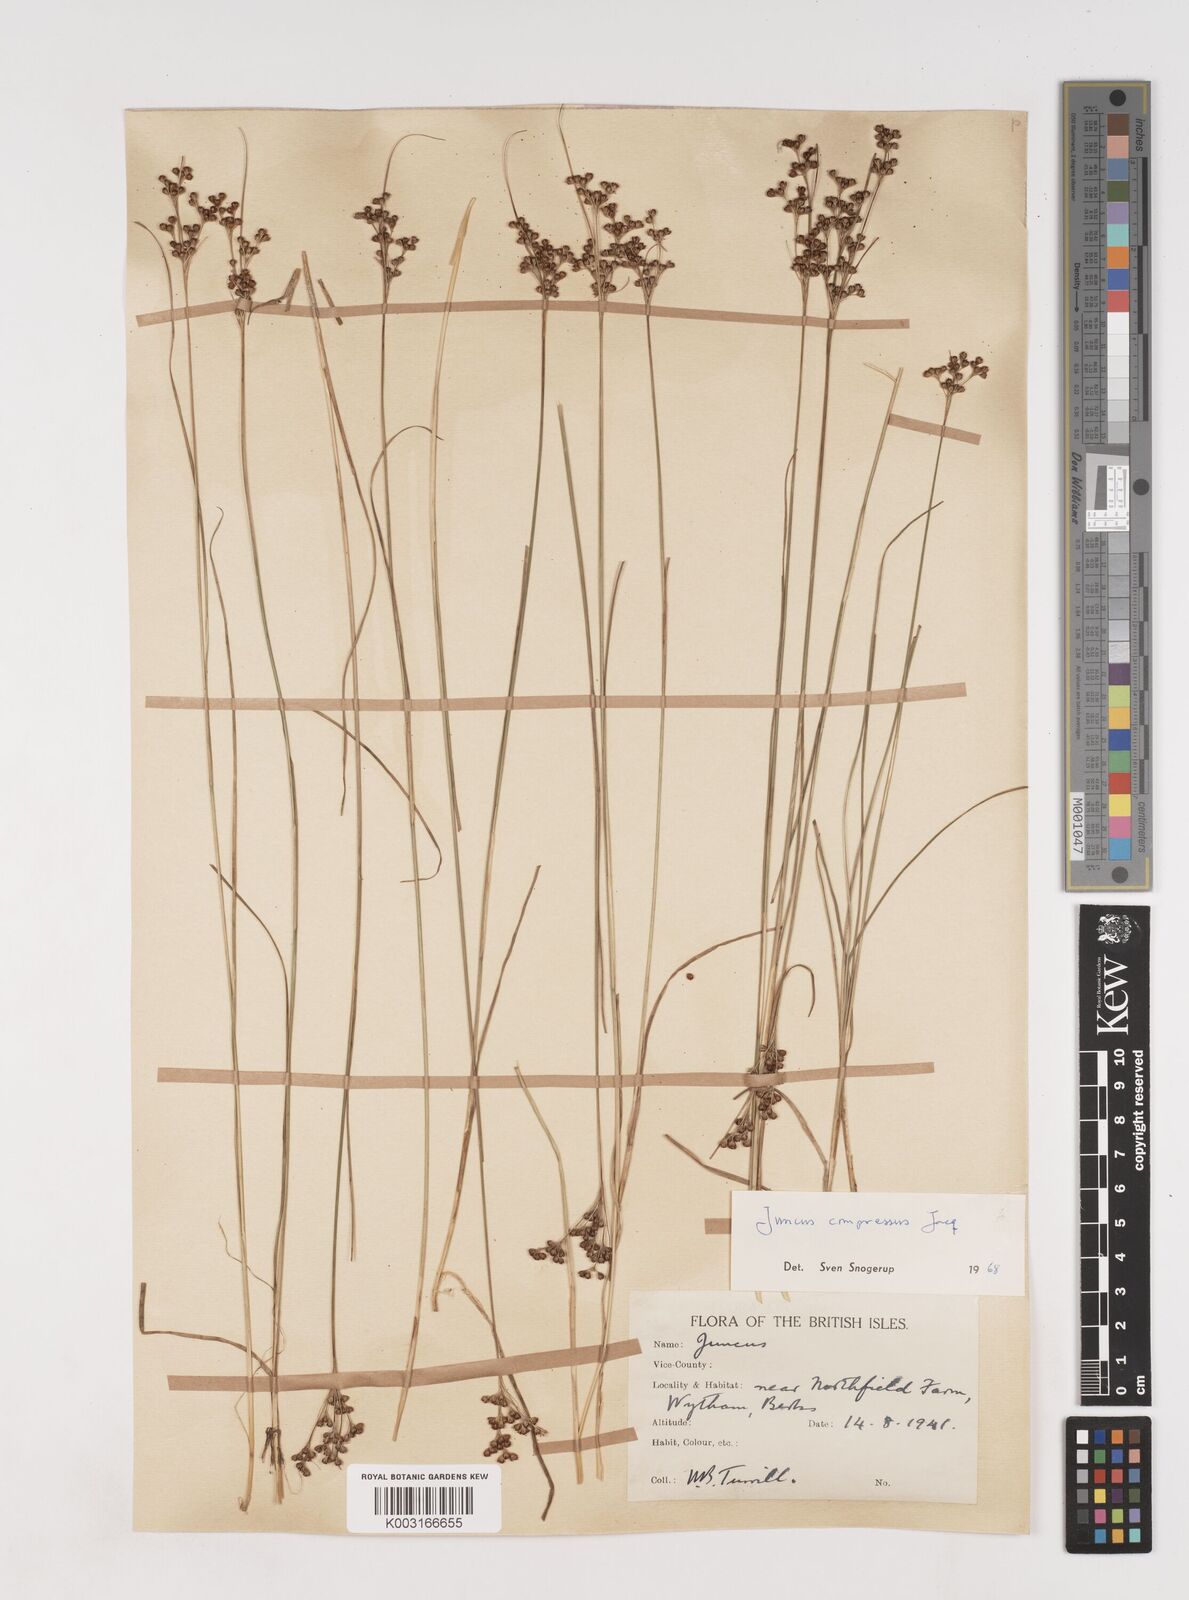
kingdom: Plantae
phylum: Tracheophyta
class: Liliopsida
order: Poales
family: Juncaceae
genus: Juncus
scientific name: Juncus compressus
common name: Round-fruited rush
